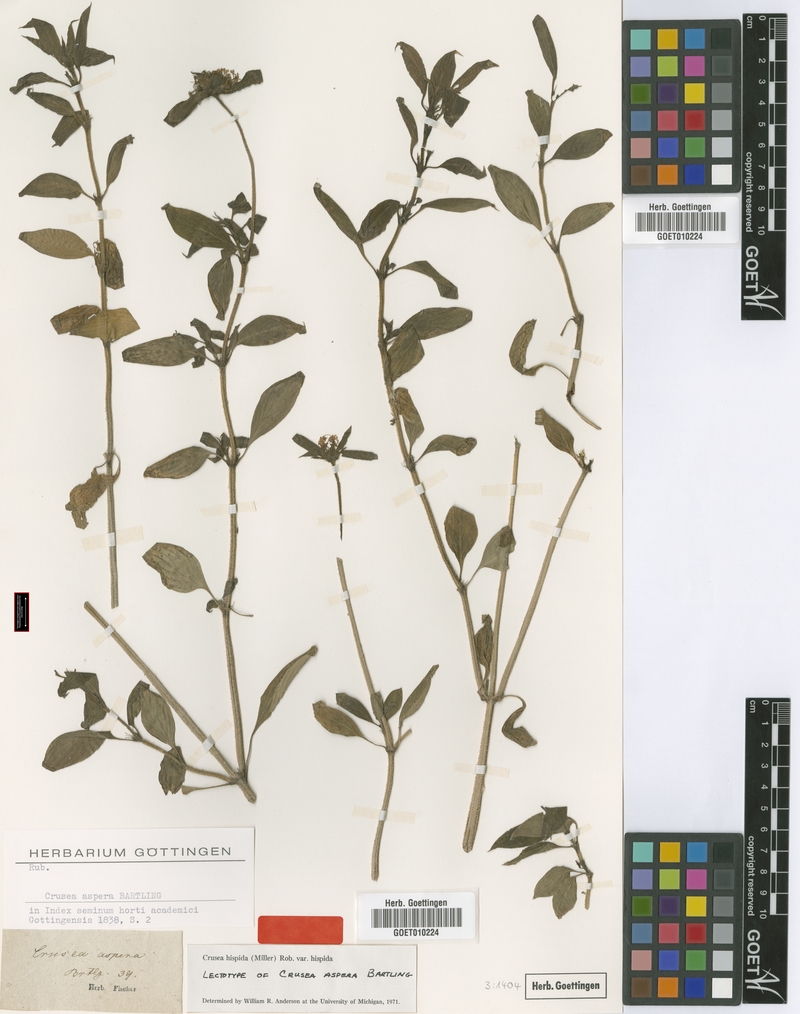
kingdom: Plantae
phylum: Tracheophyta
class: Magnoliopsida
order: Gentianales
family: Rubiaceae
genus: Crusea
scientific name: Crusea hispida
